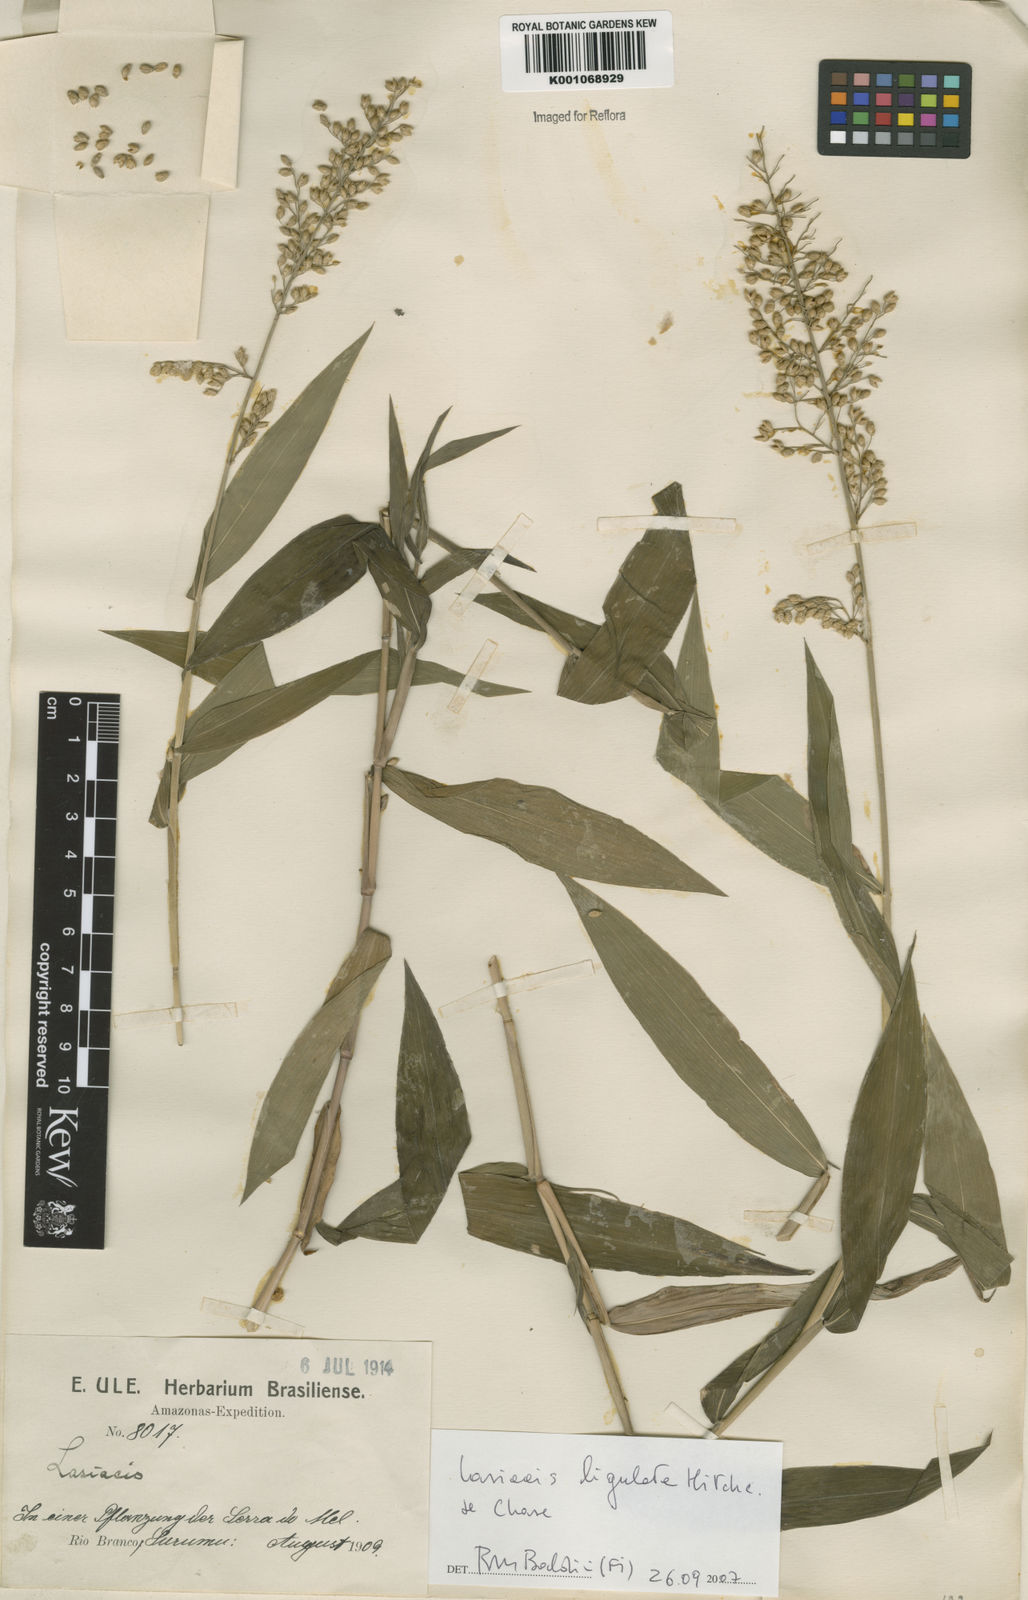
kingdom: Plantae
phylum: Tracheophyta
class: Liliopsida
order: Poales
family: Poaceae
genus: Lasiacis
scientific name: Lasiacis ligulata
